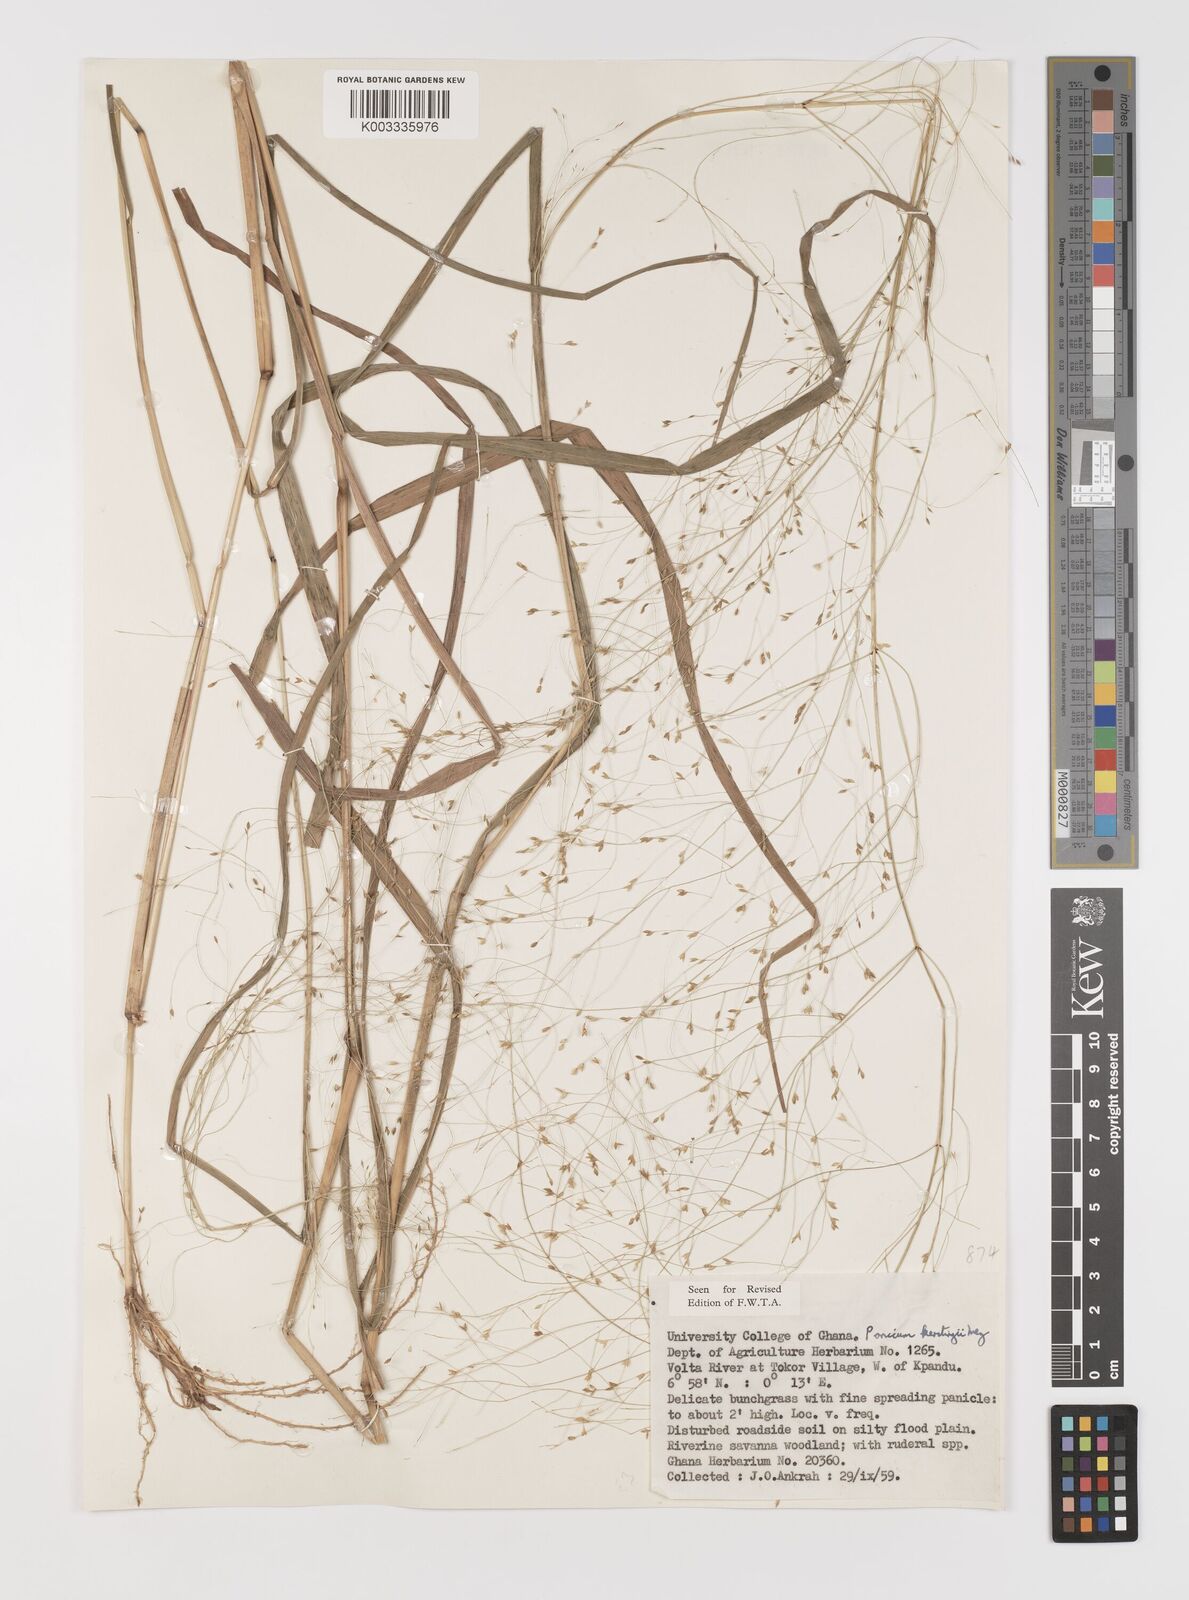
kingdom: Plantae
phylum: Tracheophyta
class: Liliopsida
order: Poales
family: Poaceae
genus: Panicum
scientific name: Panicum pansum
